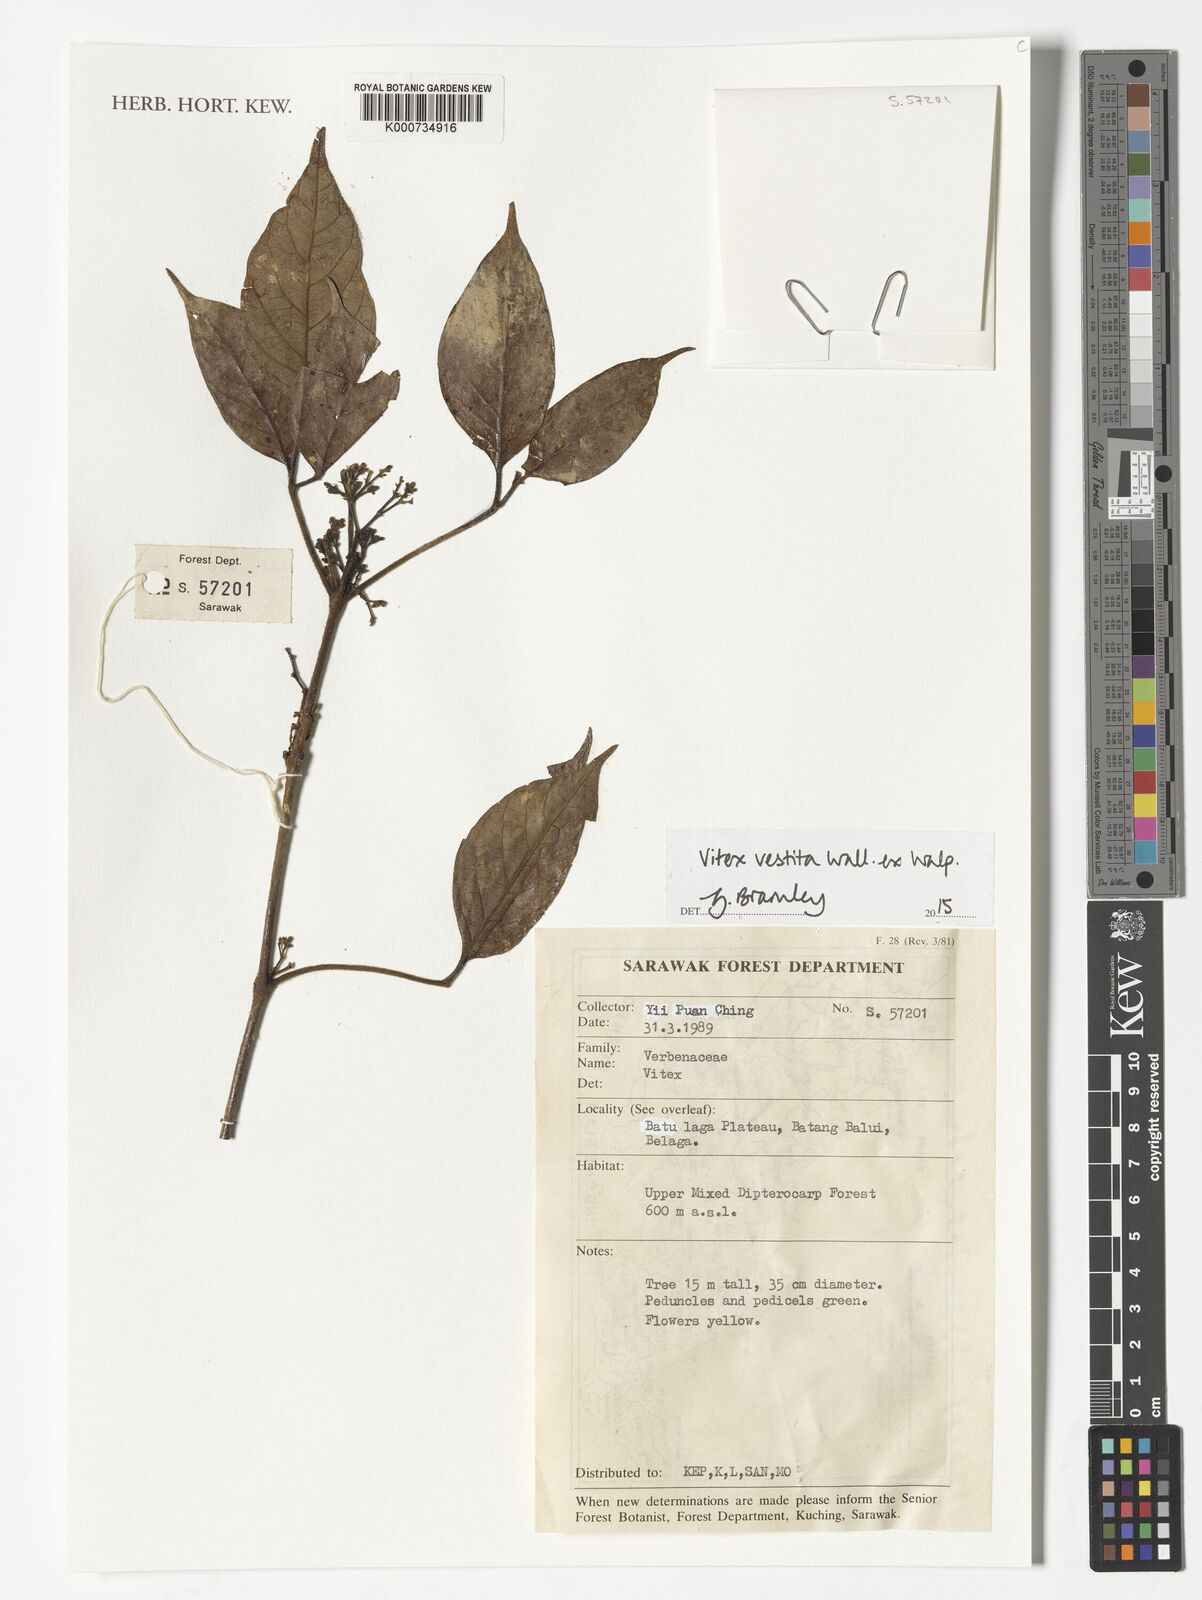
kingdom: Plantae
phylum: Tracheophyta
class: Magnoliopsida
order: Lamiales
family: Lamiaceae
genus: Vitex
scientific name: Vitex vestita
